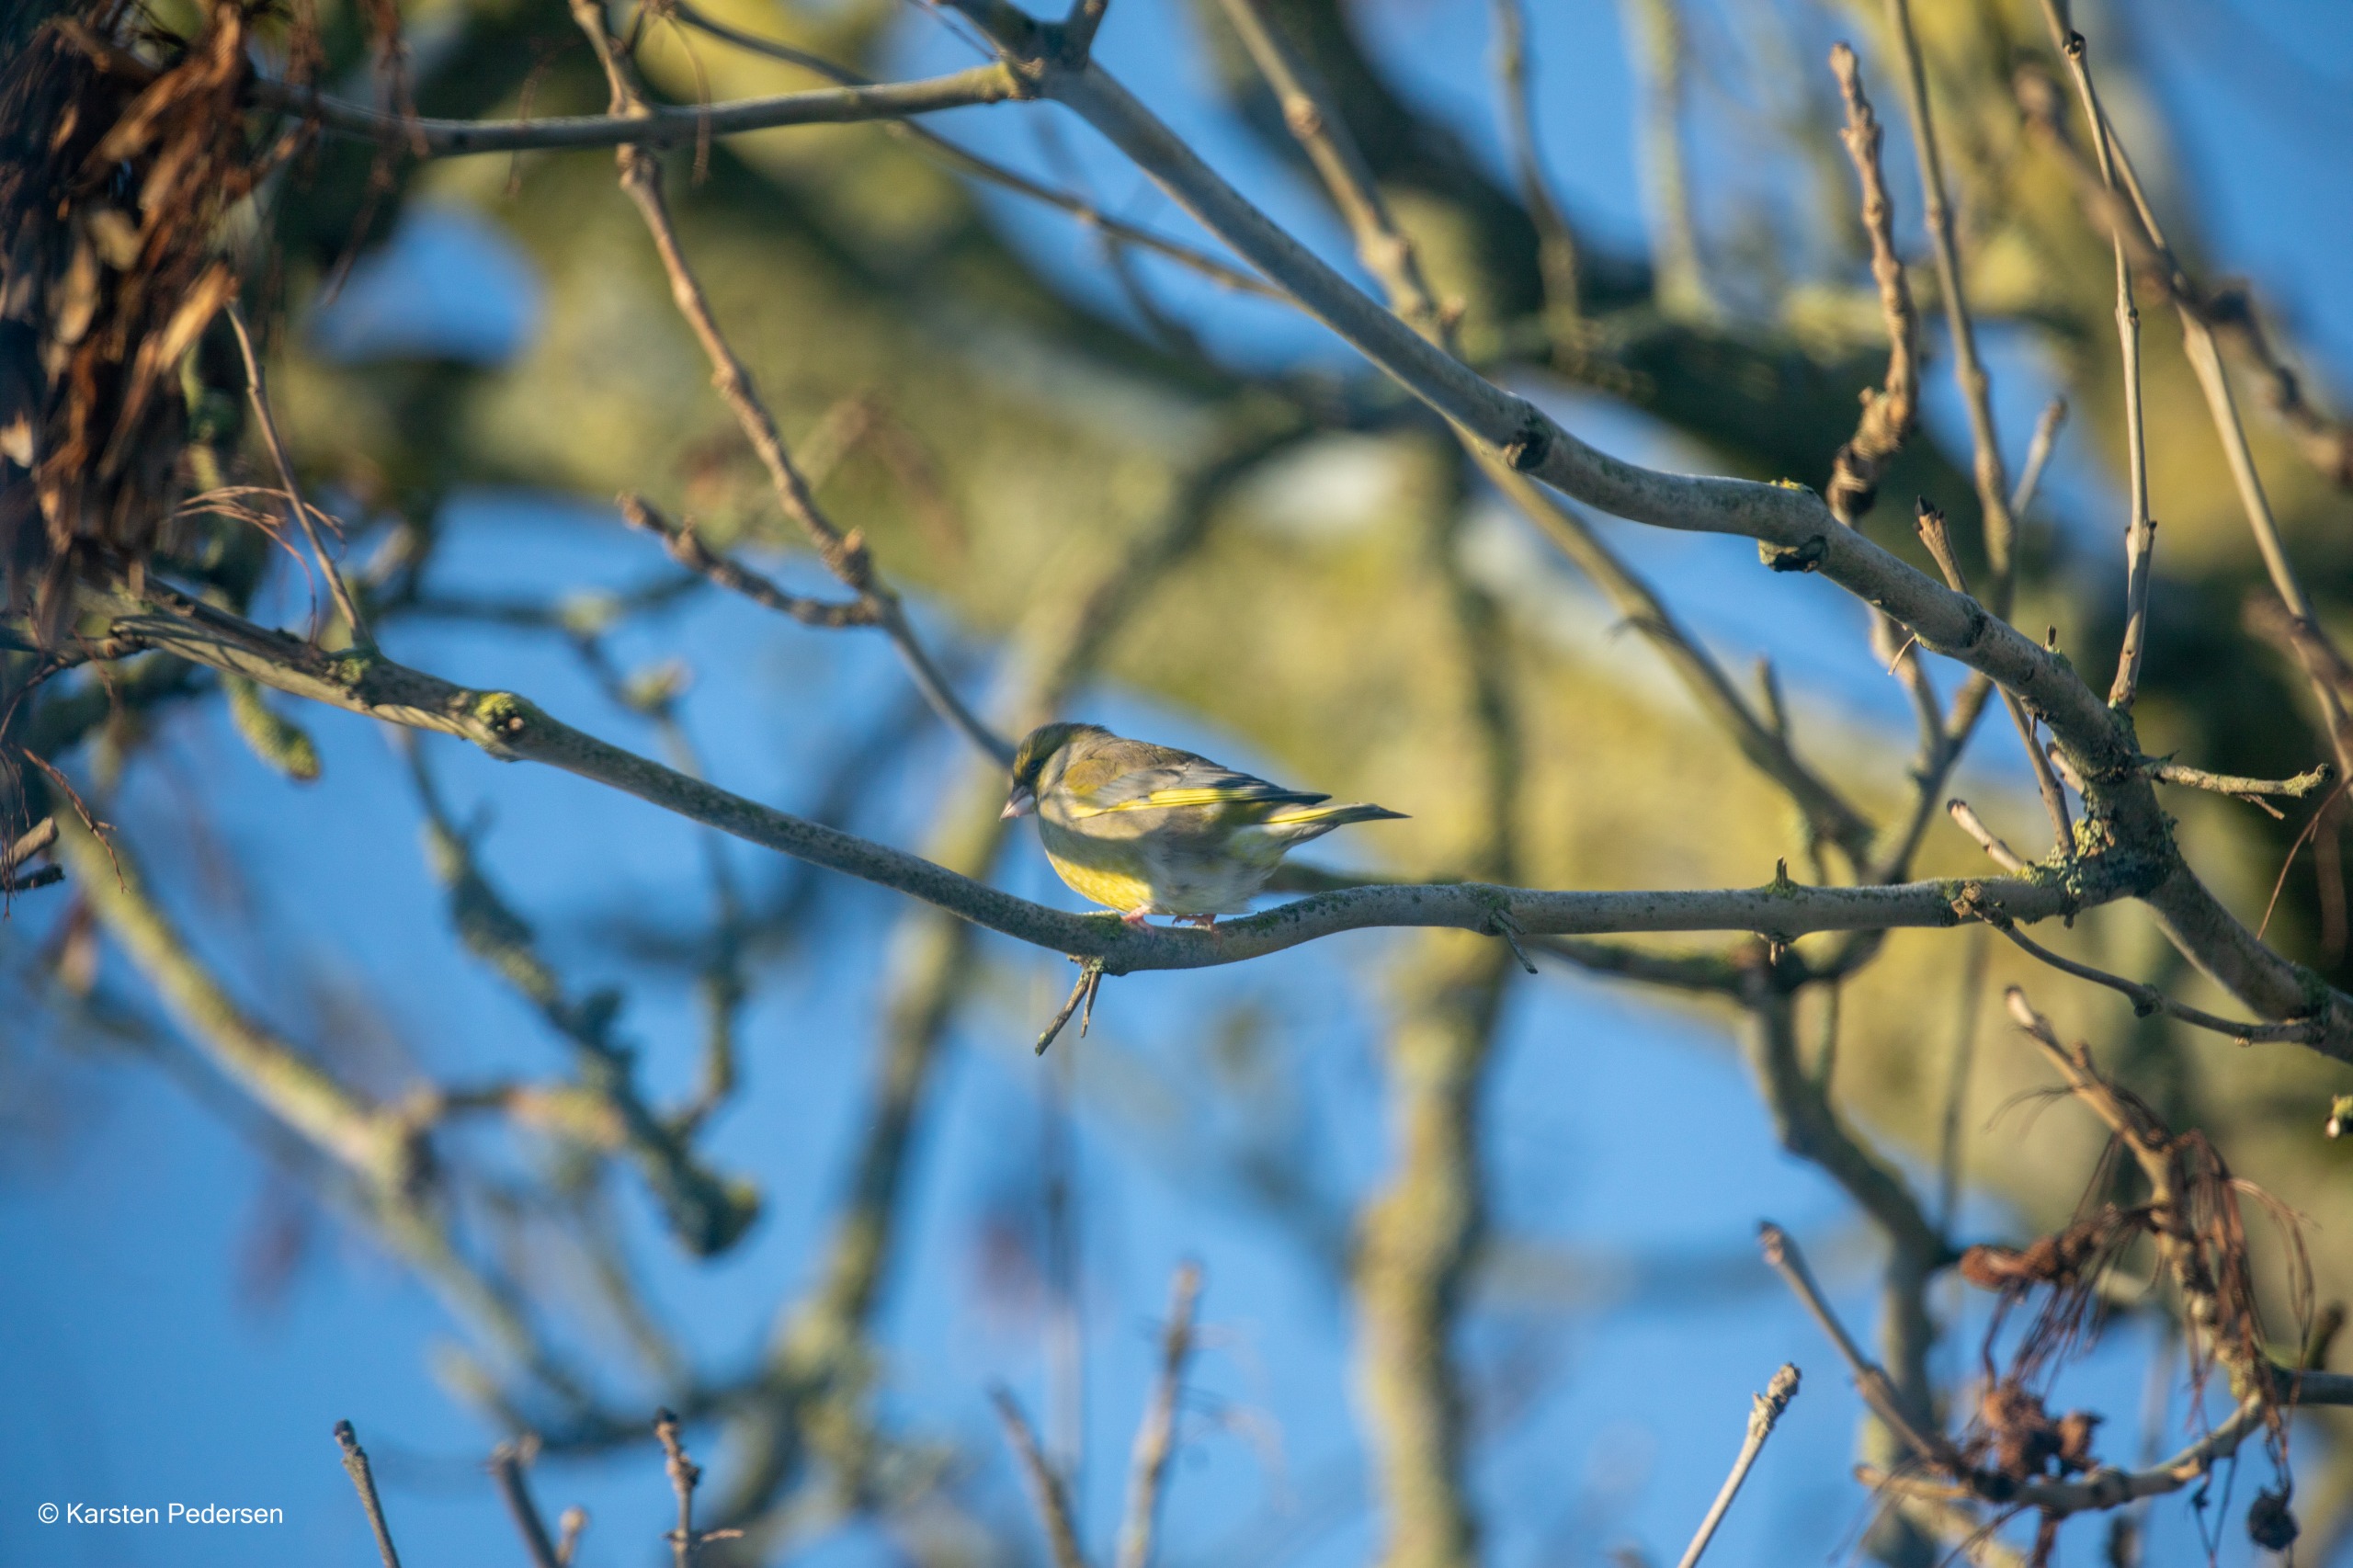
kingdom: Plantae
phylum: Tracheophyta
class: Liliopsida
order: Poales
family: Poaceae
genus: Chloris
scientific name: Chloris chloris
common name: Grønirisk
